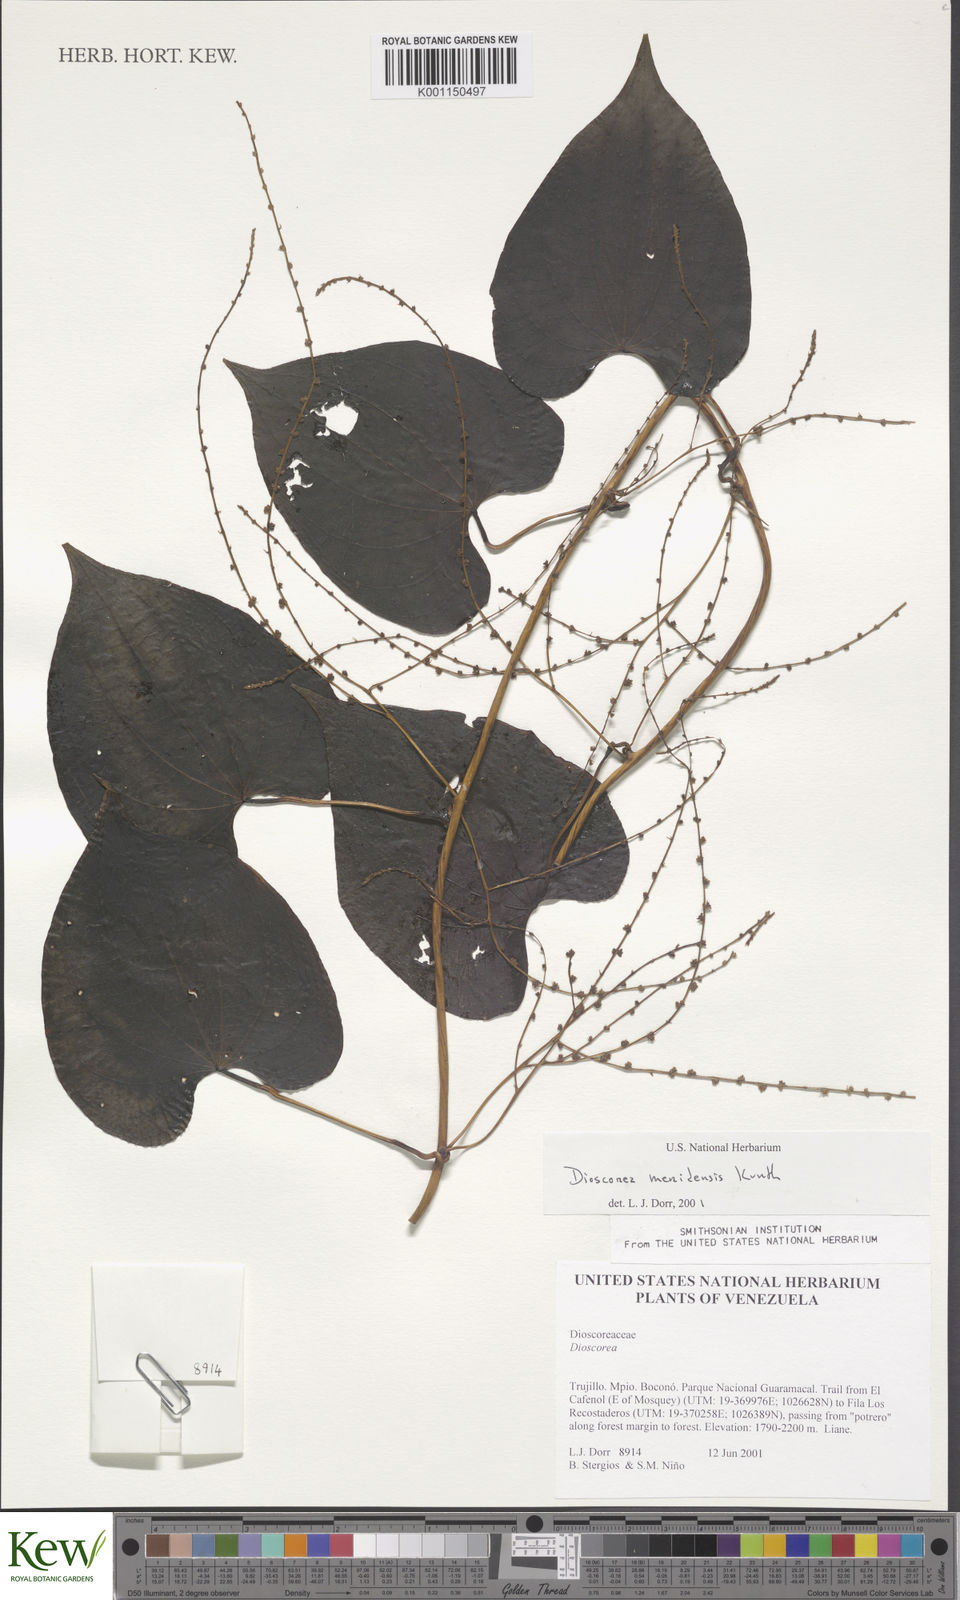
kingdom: Plantae
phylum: Tracheophyta
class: Liliopsida
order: Dioscoreales
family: Dioscoreaceae
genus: Dioscorea
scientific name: Dioscorea meridensis
